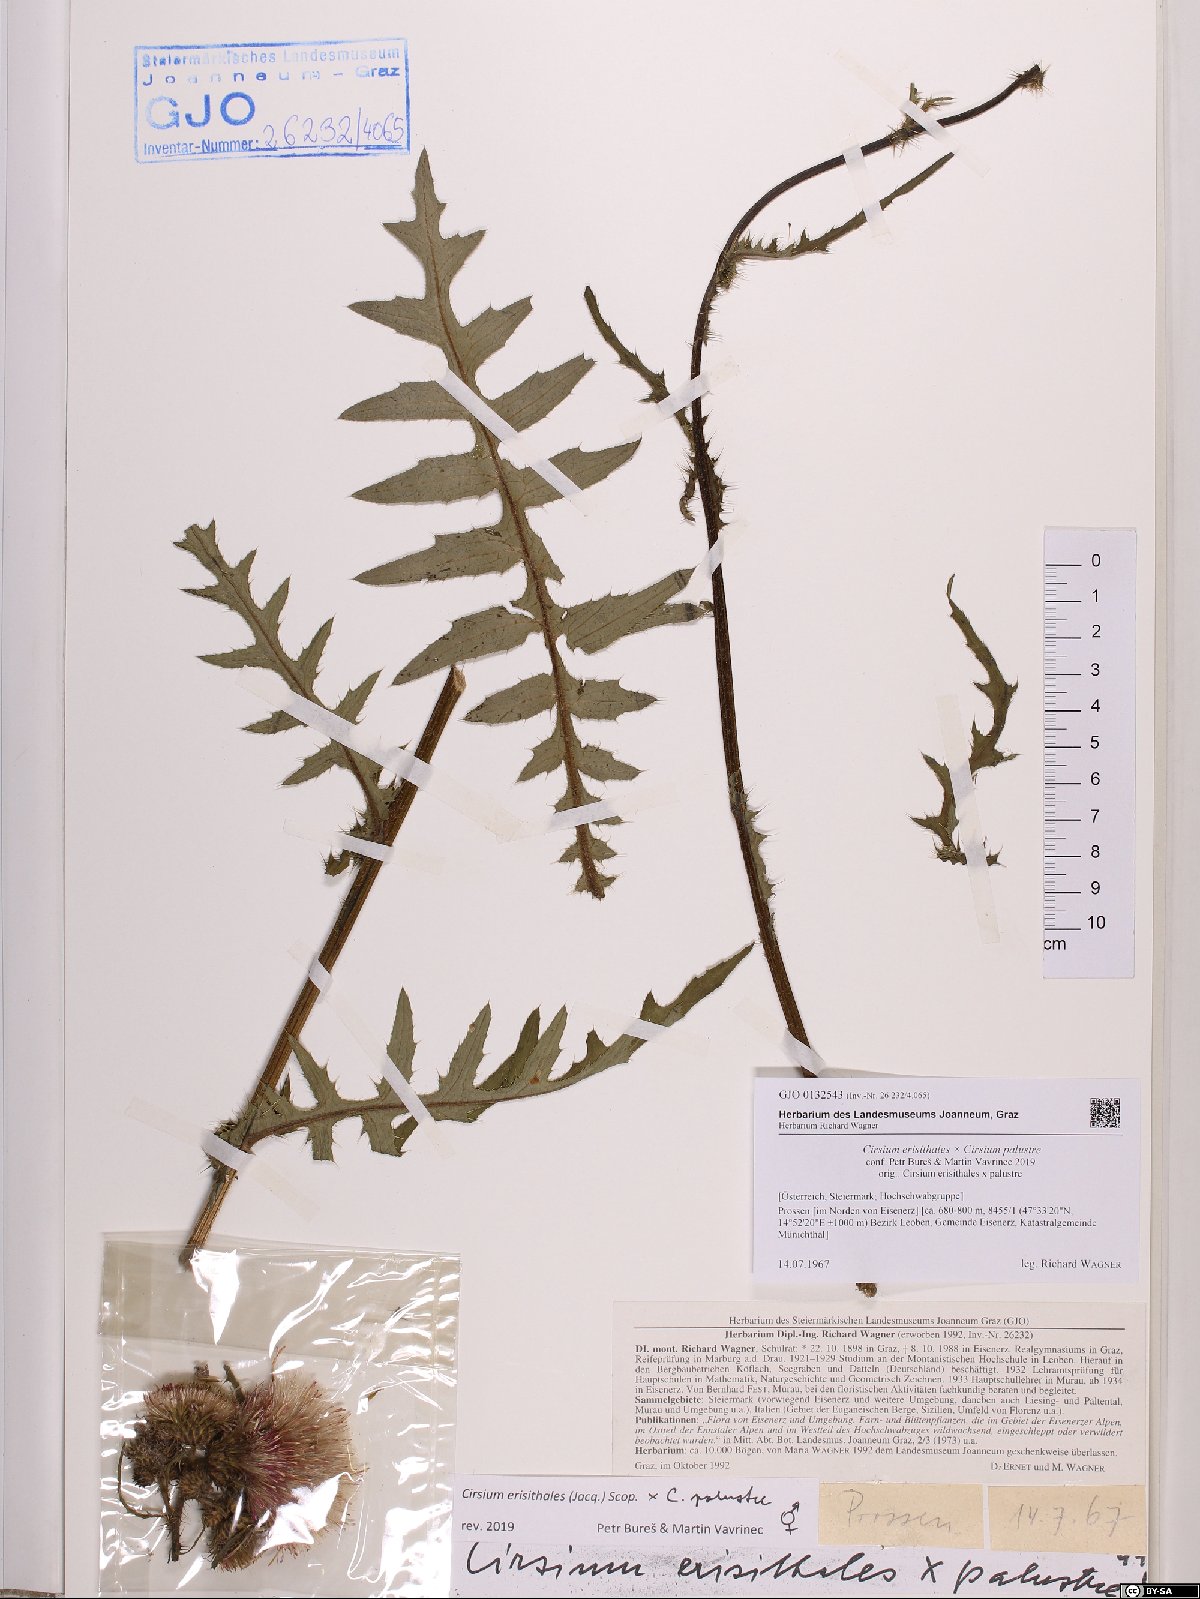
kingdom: Plantae
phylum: Tracheophyta
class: Magnoliopsida
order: Asterales
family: Asteraceae
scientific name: Asteraceae
